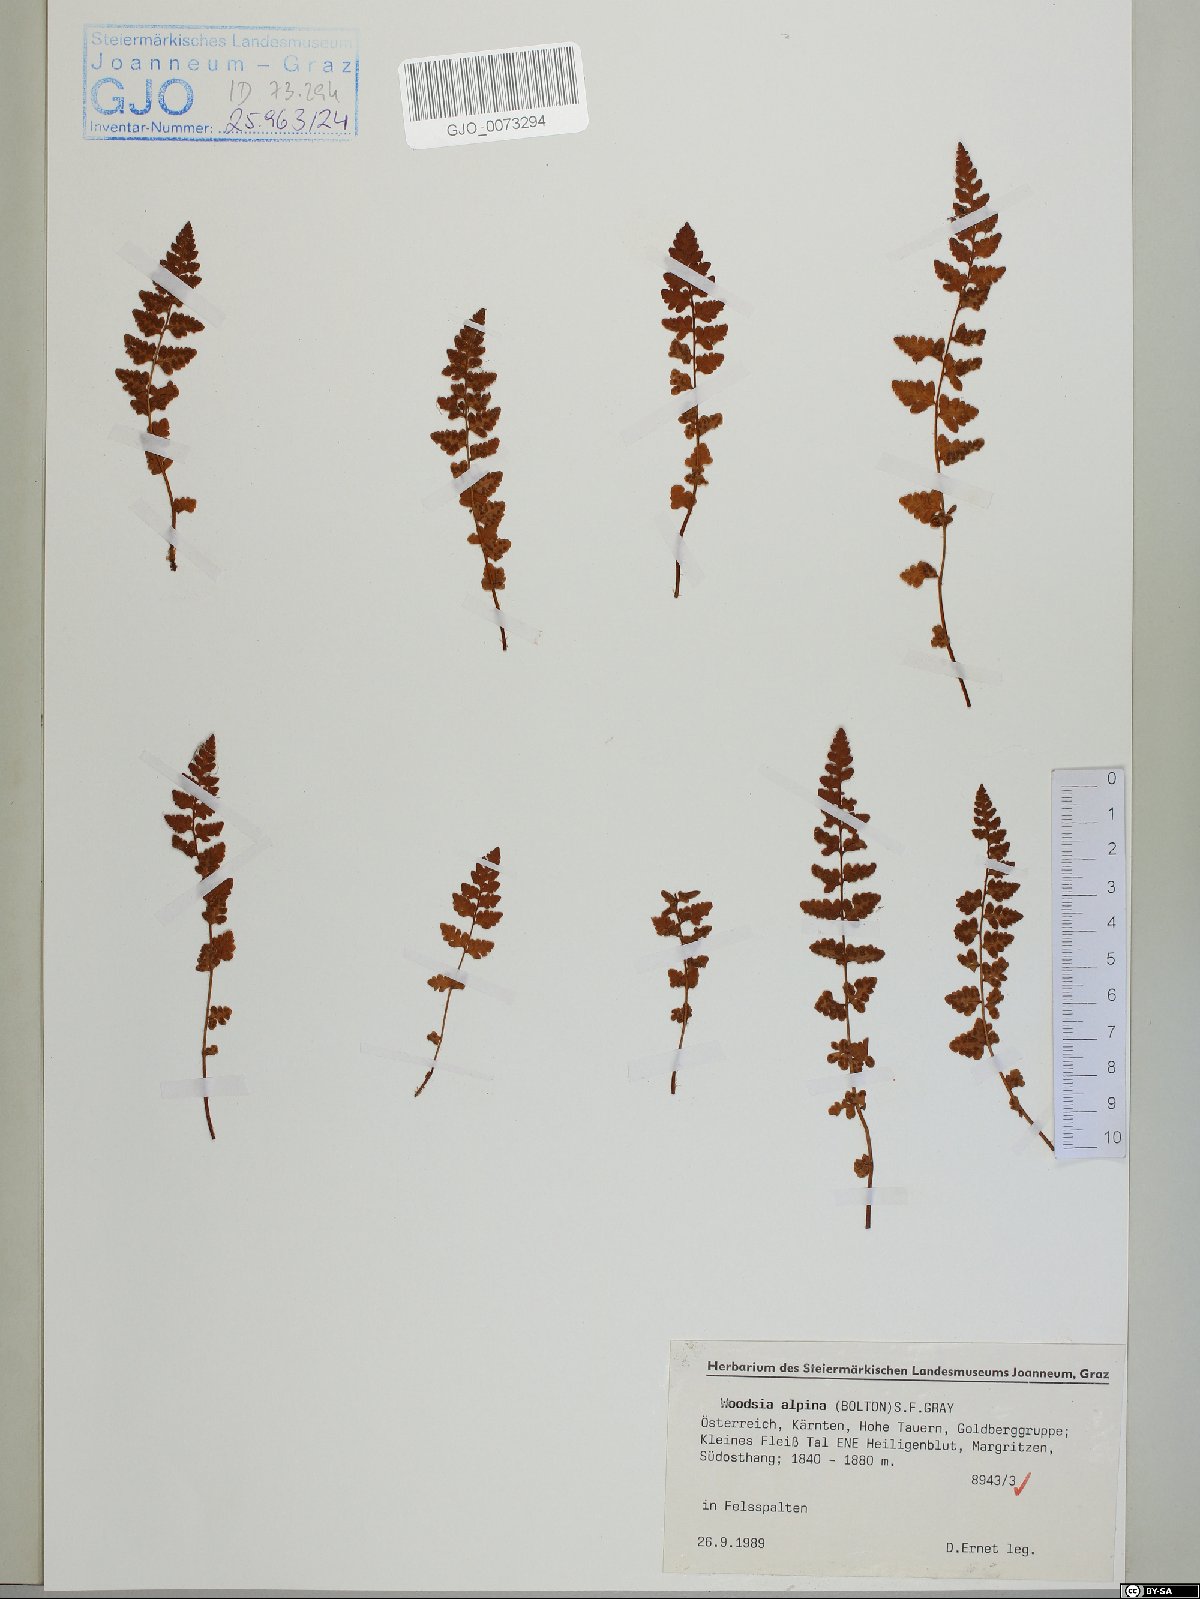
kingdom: Plantae
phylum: Tracheophyta
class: Polypodiopsida
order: Polypodiales
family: Woodsiaceae
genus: Woodsia
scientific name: Woodsia alpina
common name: Alpine woodsia
